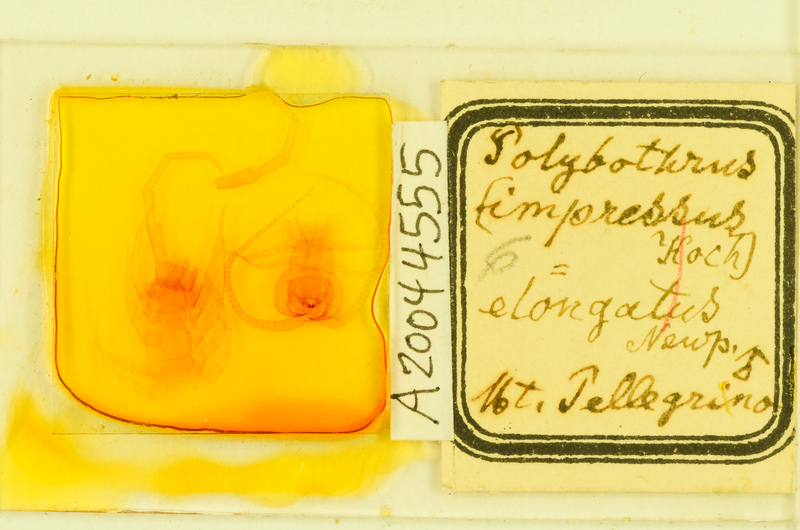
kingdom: Animalia
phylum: Arthropoda
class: Chilopoda
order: Lithobiomorpha
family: Lithobiidae
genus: Polybothrus
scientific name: Polybothrus
